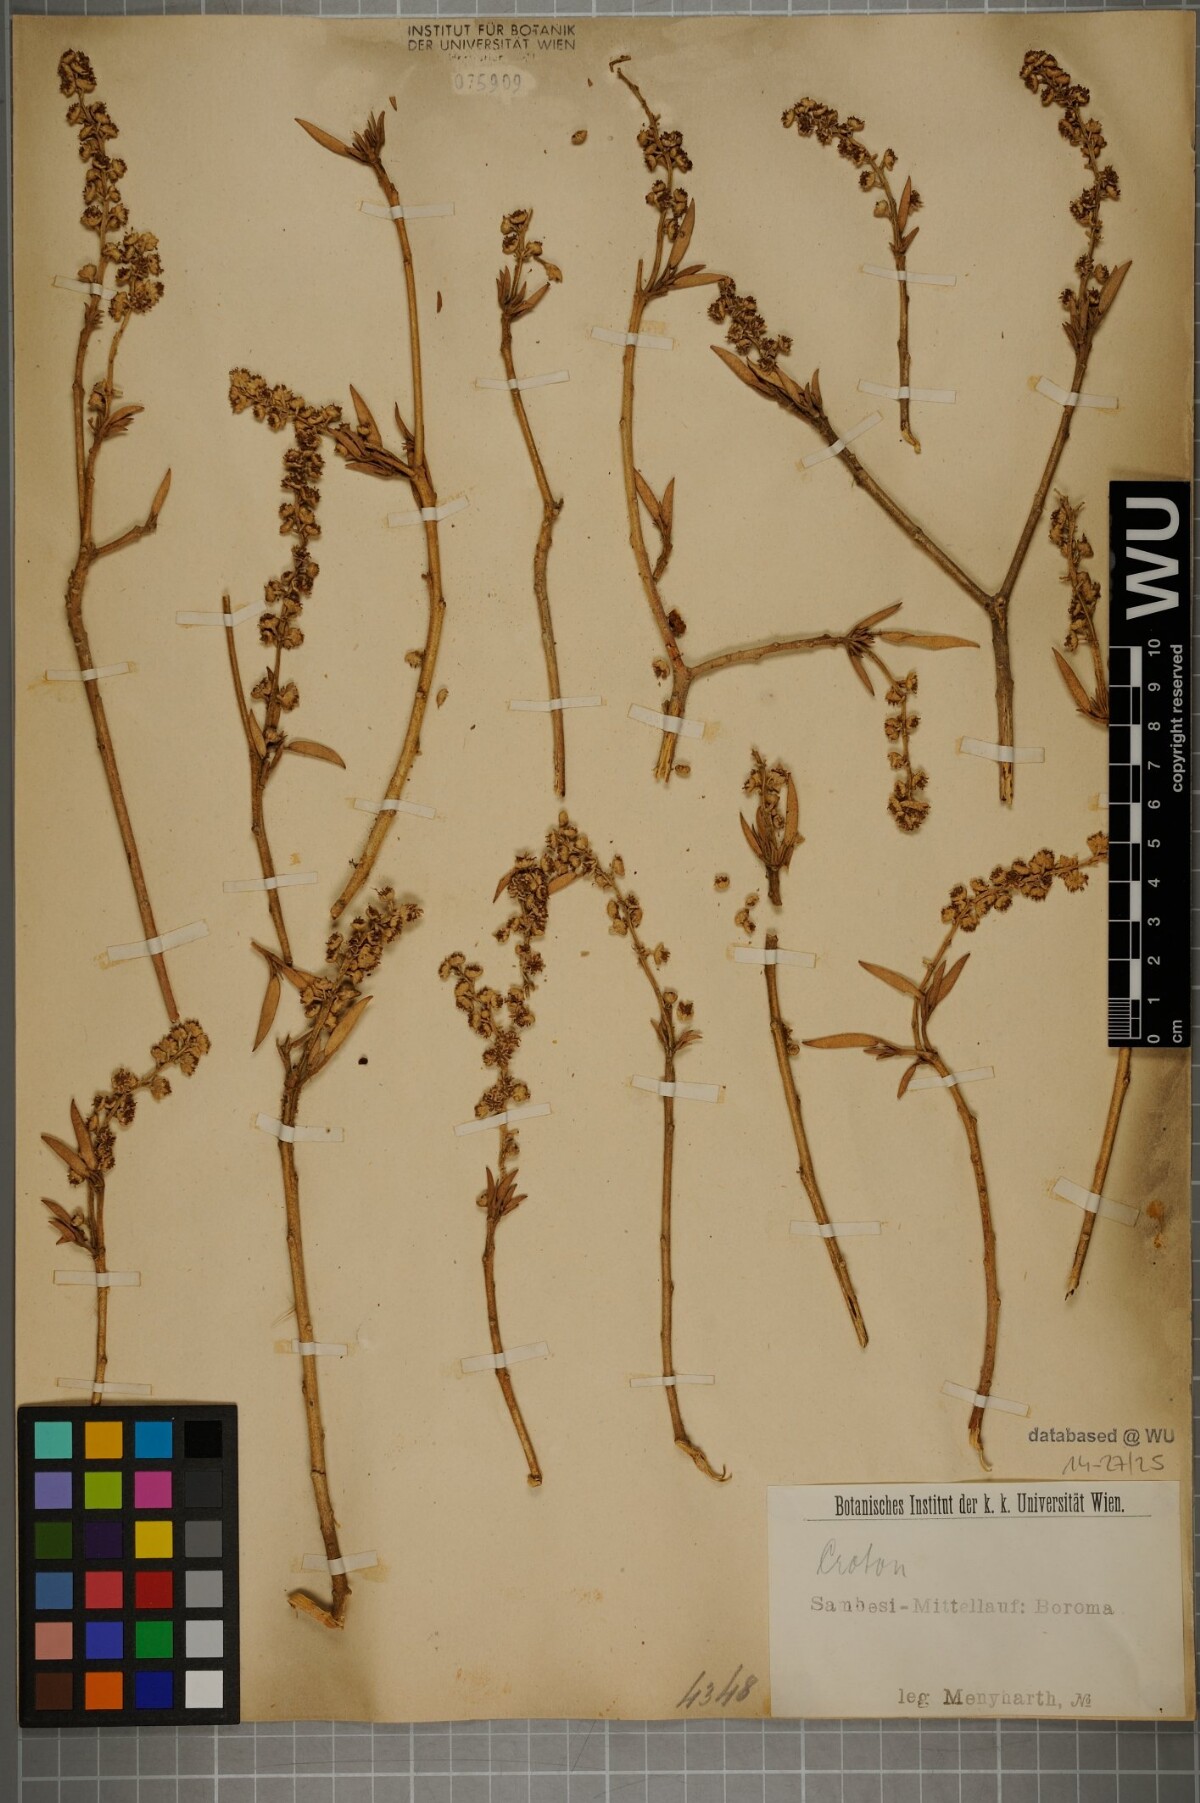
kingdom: Plantae
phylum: Tracheophyta
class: Magnoliopsida
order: Malpighiales
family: Euphorbiaceae
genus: Croton
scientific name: Croton
